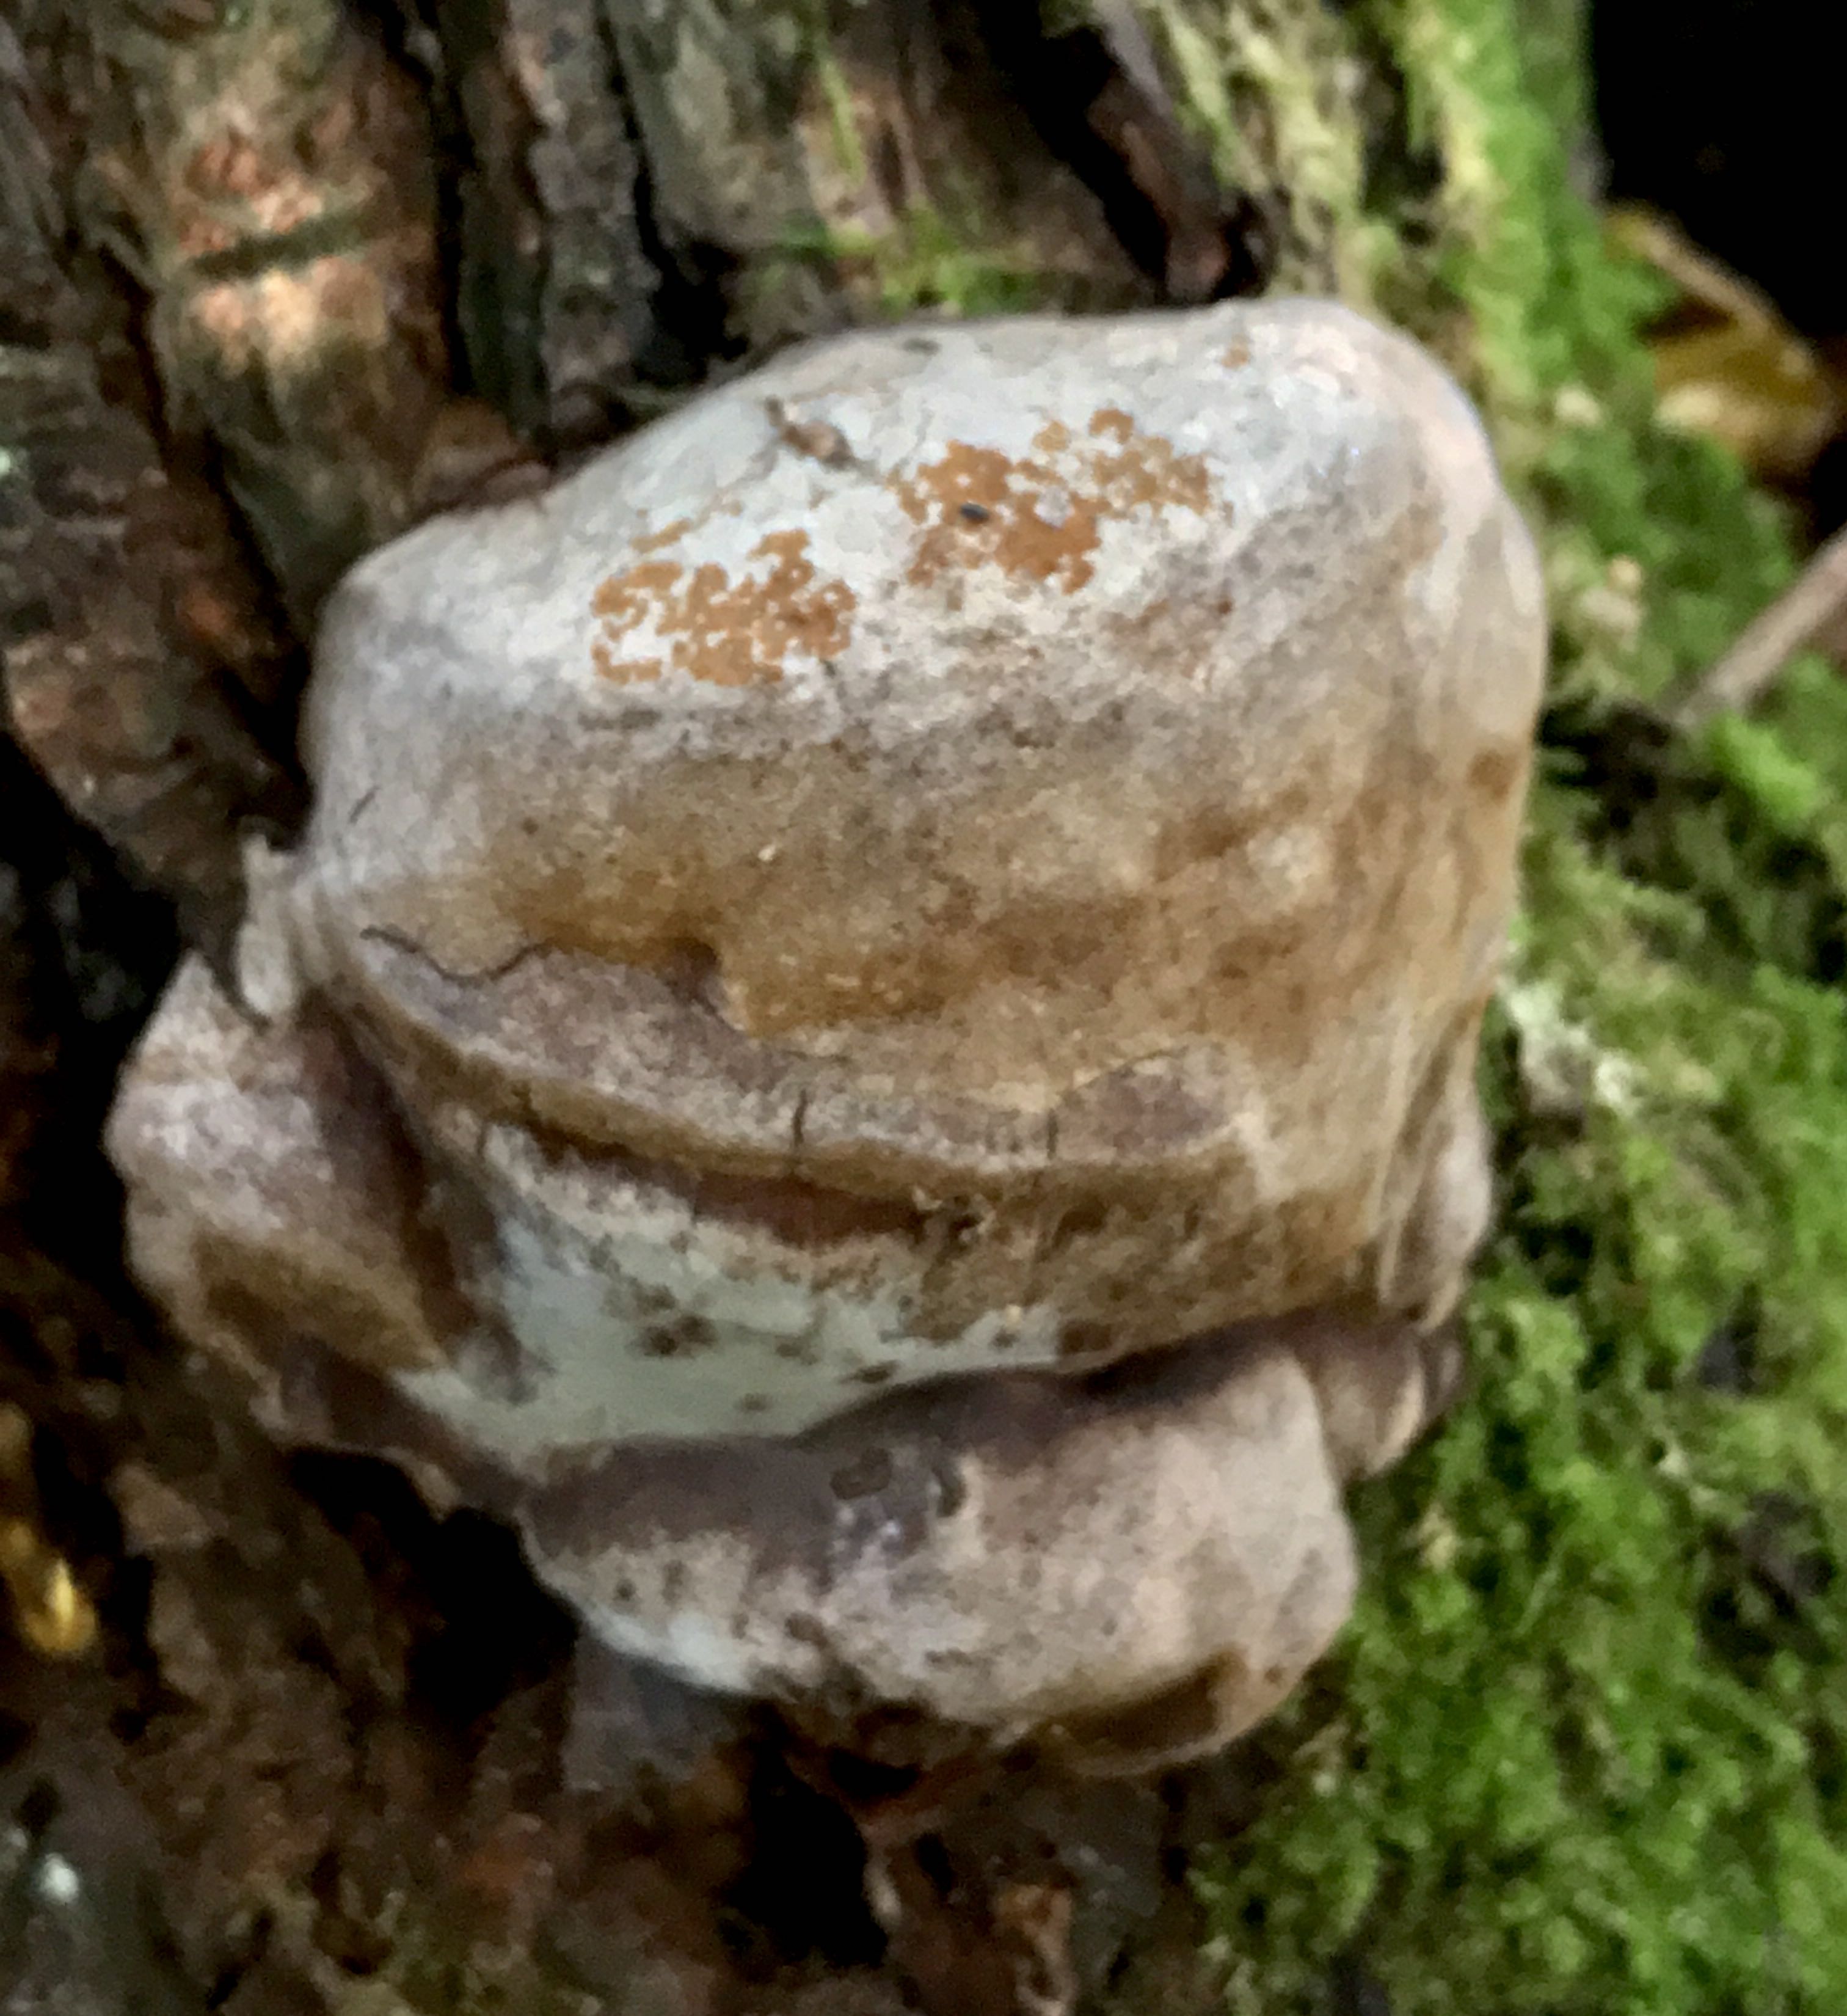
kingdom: Fungi
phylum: Basidiomycota
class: Agaricomycetes
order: Hymenochaetales
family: Hymenochaetaceae
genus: Phellinus
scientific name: Phellinus pomaceus
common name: blomme-ildporesvamp
